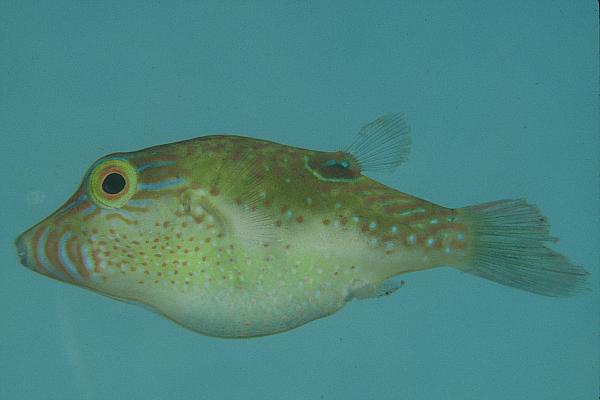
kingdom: Animalia
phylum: Chordata
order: Tetraodontiformes
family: Tetraodontidae
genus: Canthigaster
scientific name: Canthigaster bennetti
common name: Bennett's pufferfish
